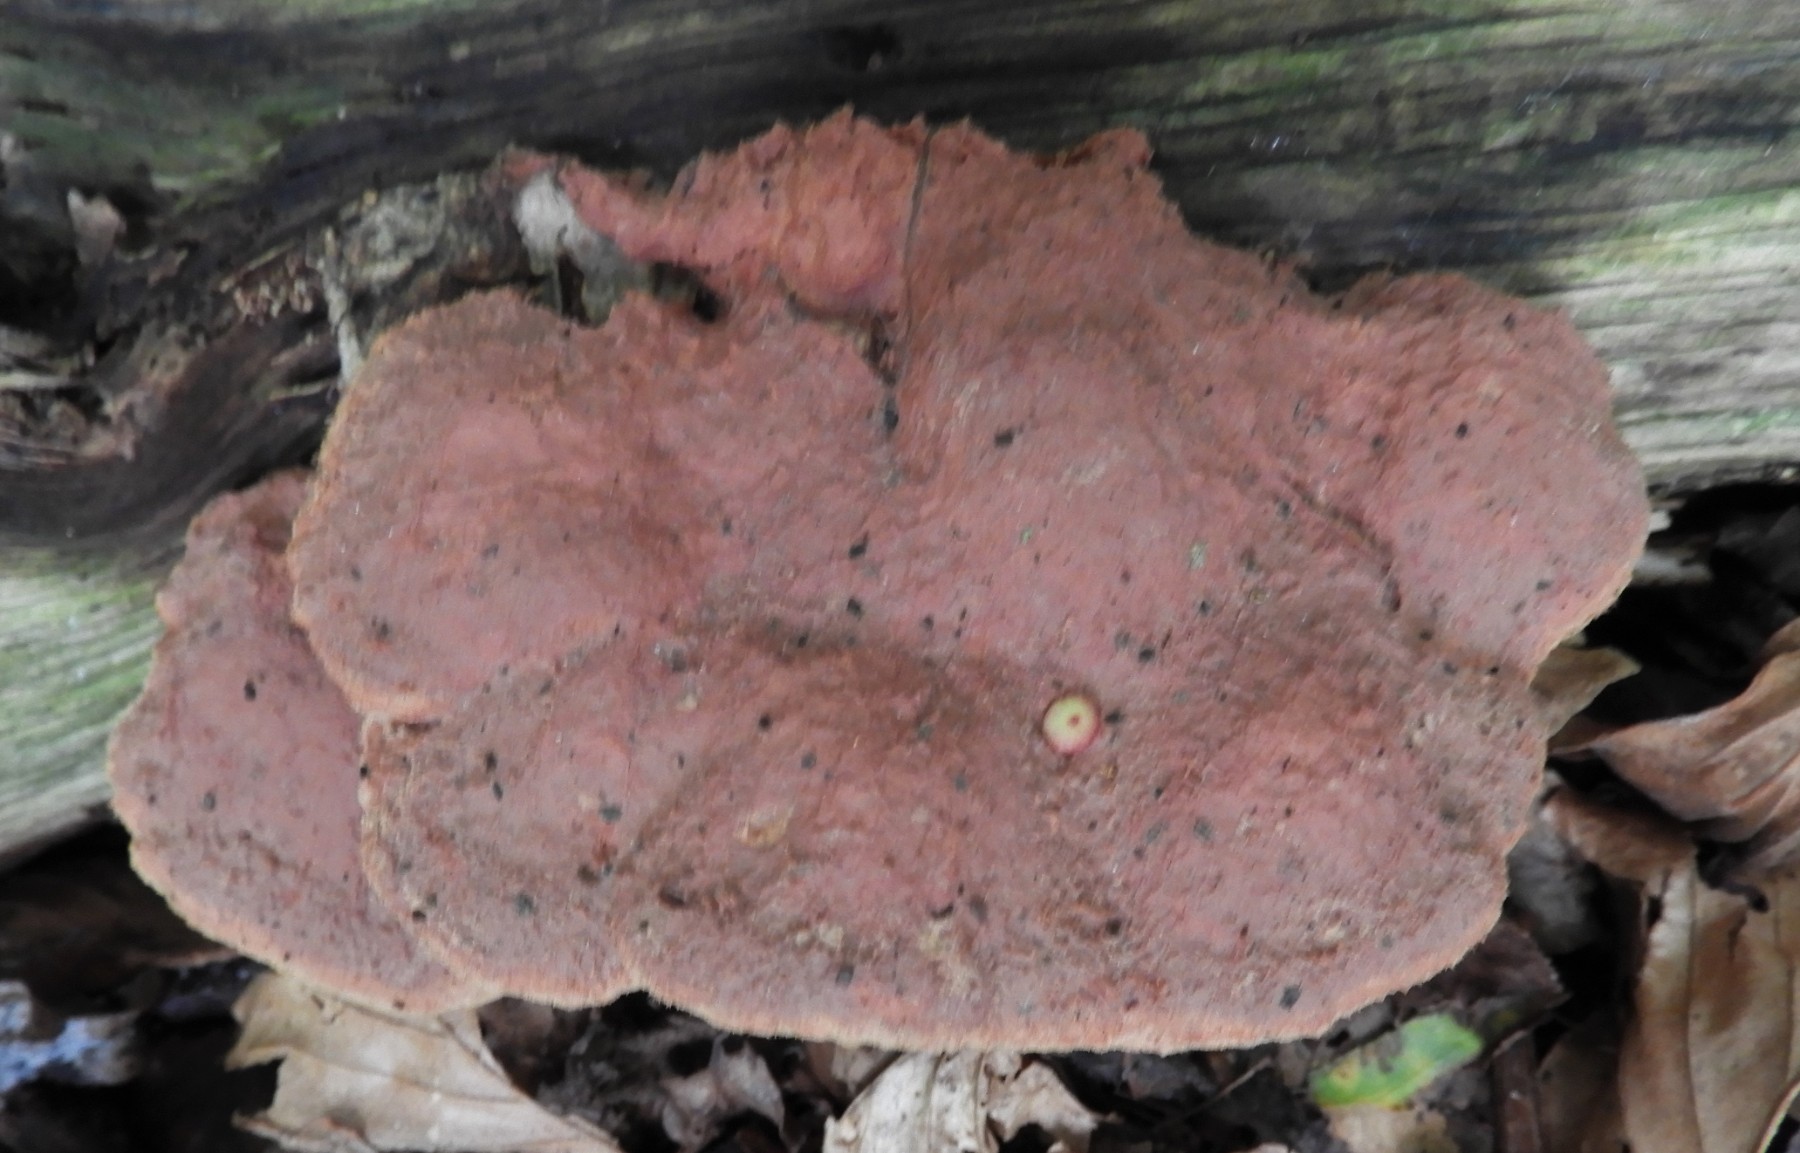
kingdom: Fungi
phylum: Basidiomycota
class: Agaricomycetes
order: Polyporales
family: Phanerochaetaceae
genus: Hapalopilus
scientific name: Hapalopilus rutilans
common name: rødlig okkerporesvamp
